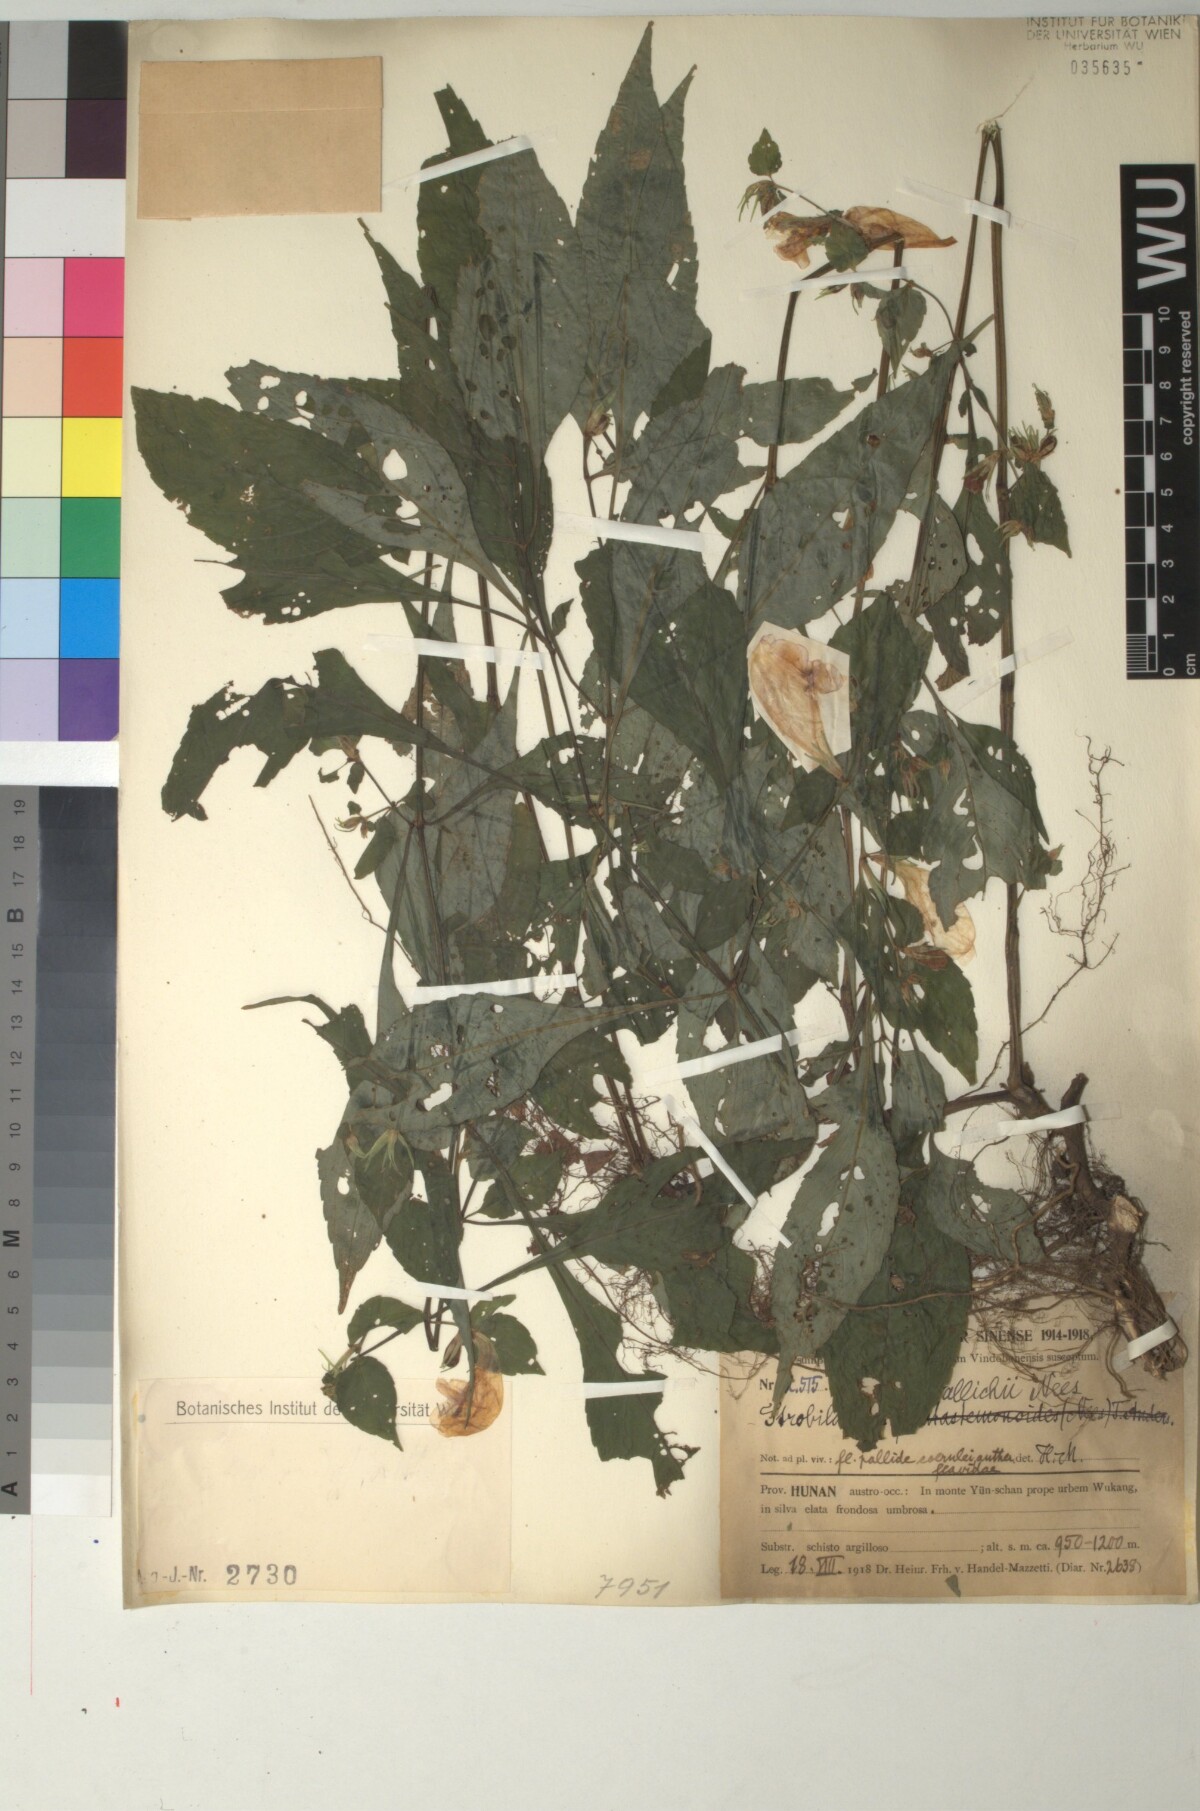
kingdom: Plantae
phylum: Tracheophyta
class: Magnoliopsida
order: Lamiales
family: Acanthaceae
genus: Strobilanthes
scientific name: Strobilanthes wallichii
